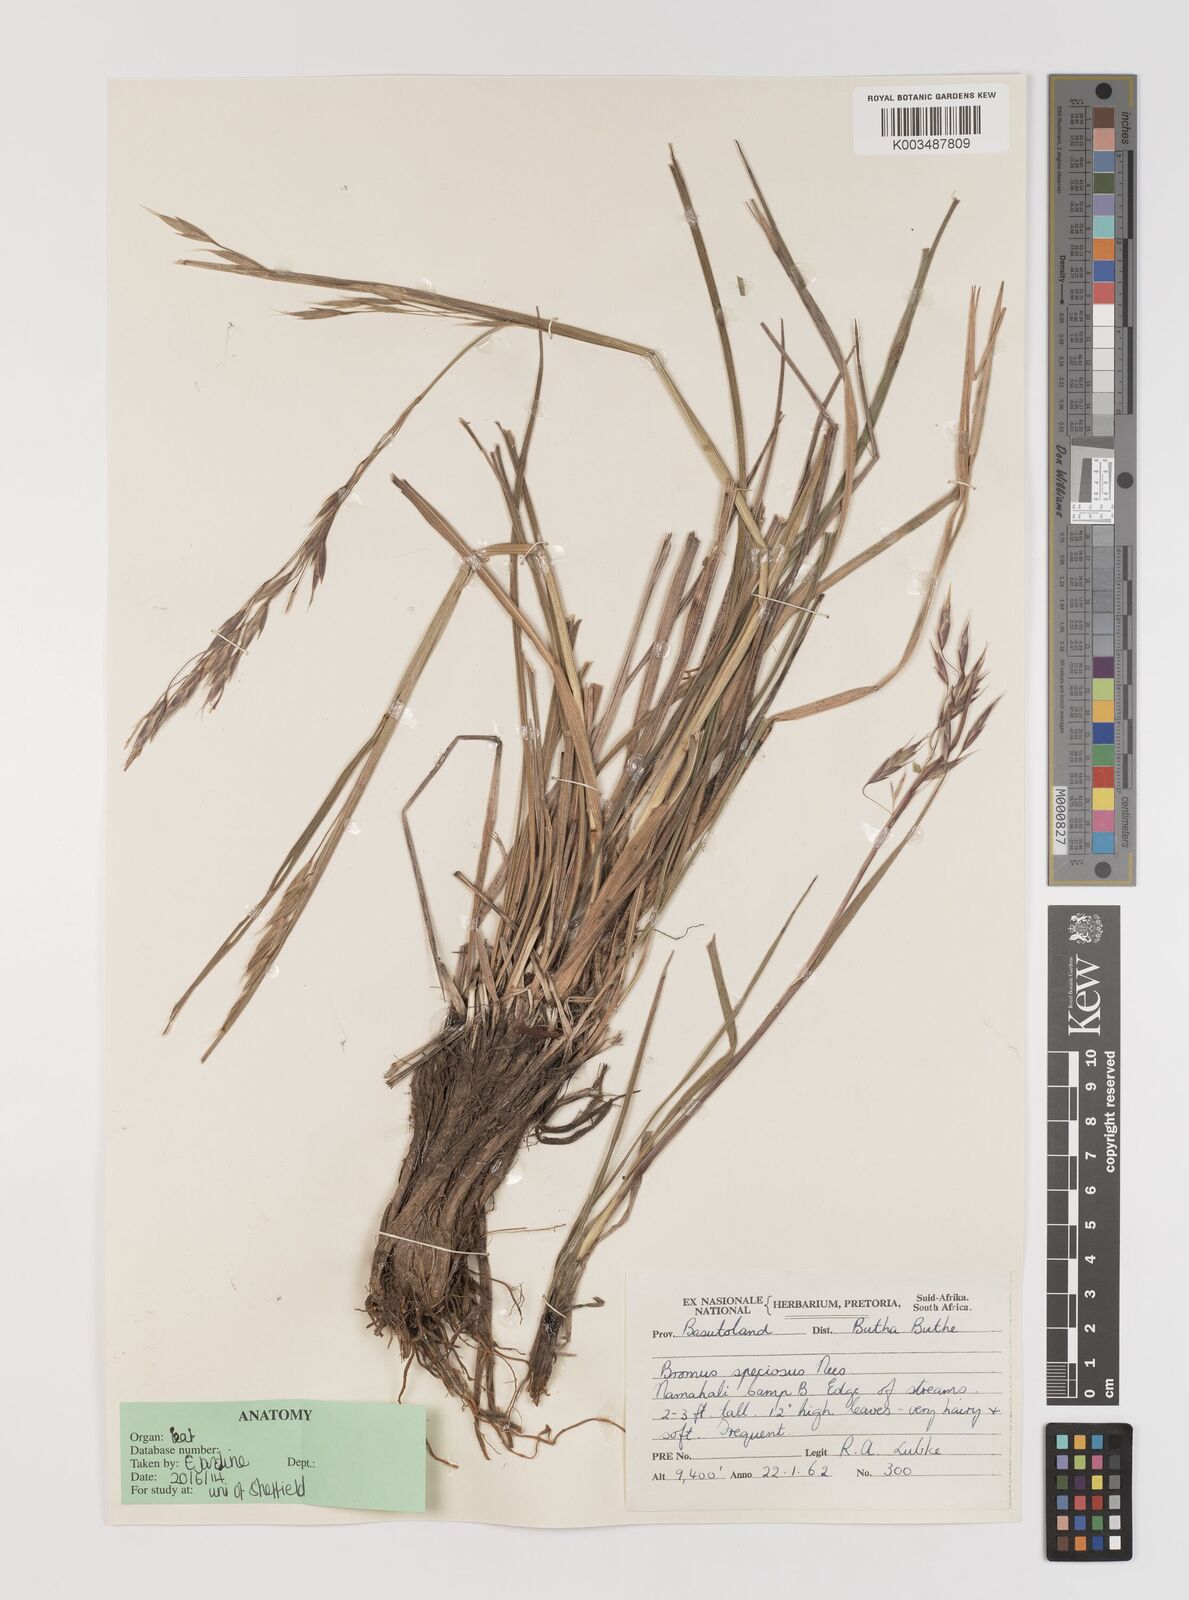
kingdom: Plantae
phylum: Tracheophyta
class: Liliopsida
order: Poales
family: Poaceae
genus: Bromus
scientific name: Bromus speciosus
